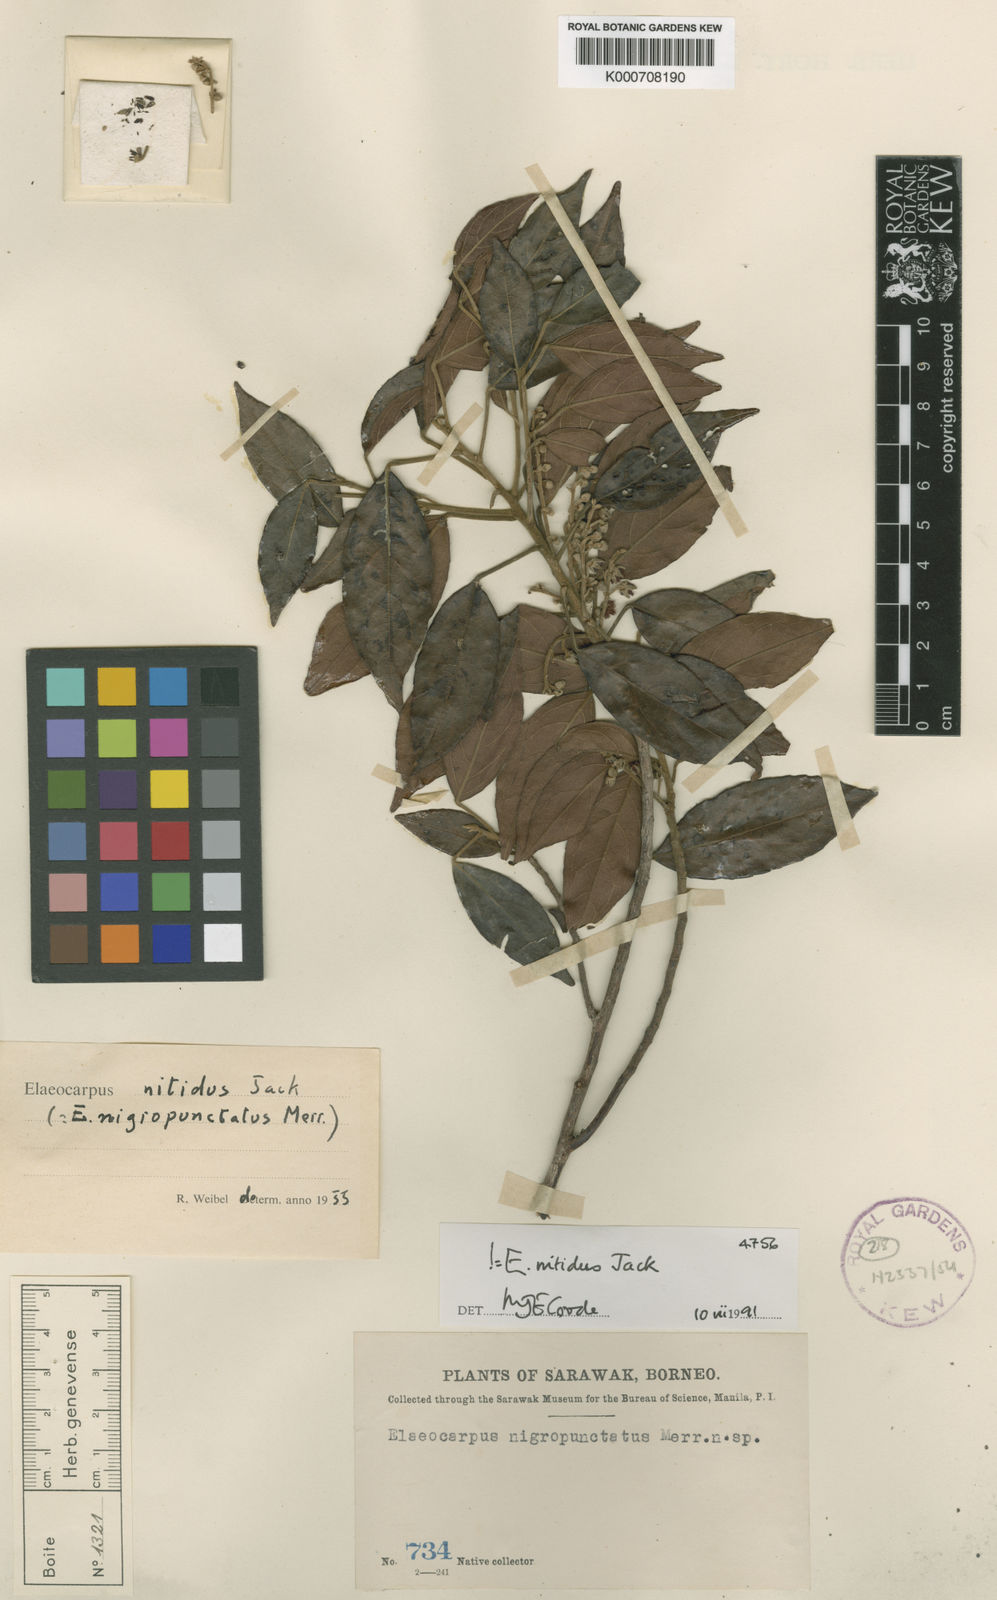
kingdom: Plantae
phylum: Tracheophyta
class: Magnoliopsida
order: Oxalidales
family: Elaeocarpaceae
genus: Elaeocarpus
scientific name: Elaeocarpus nitidus
